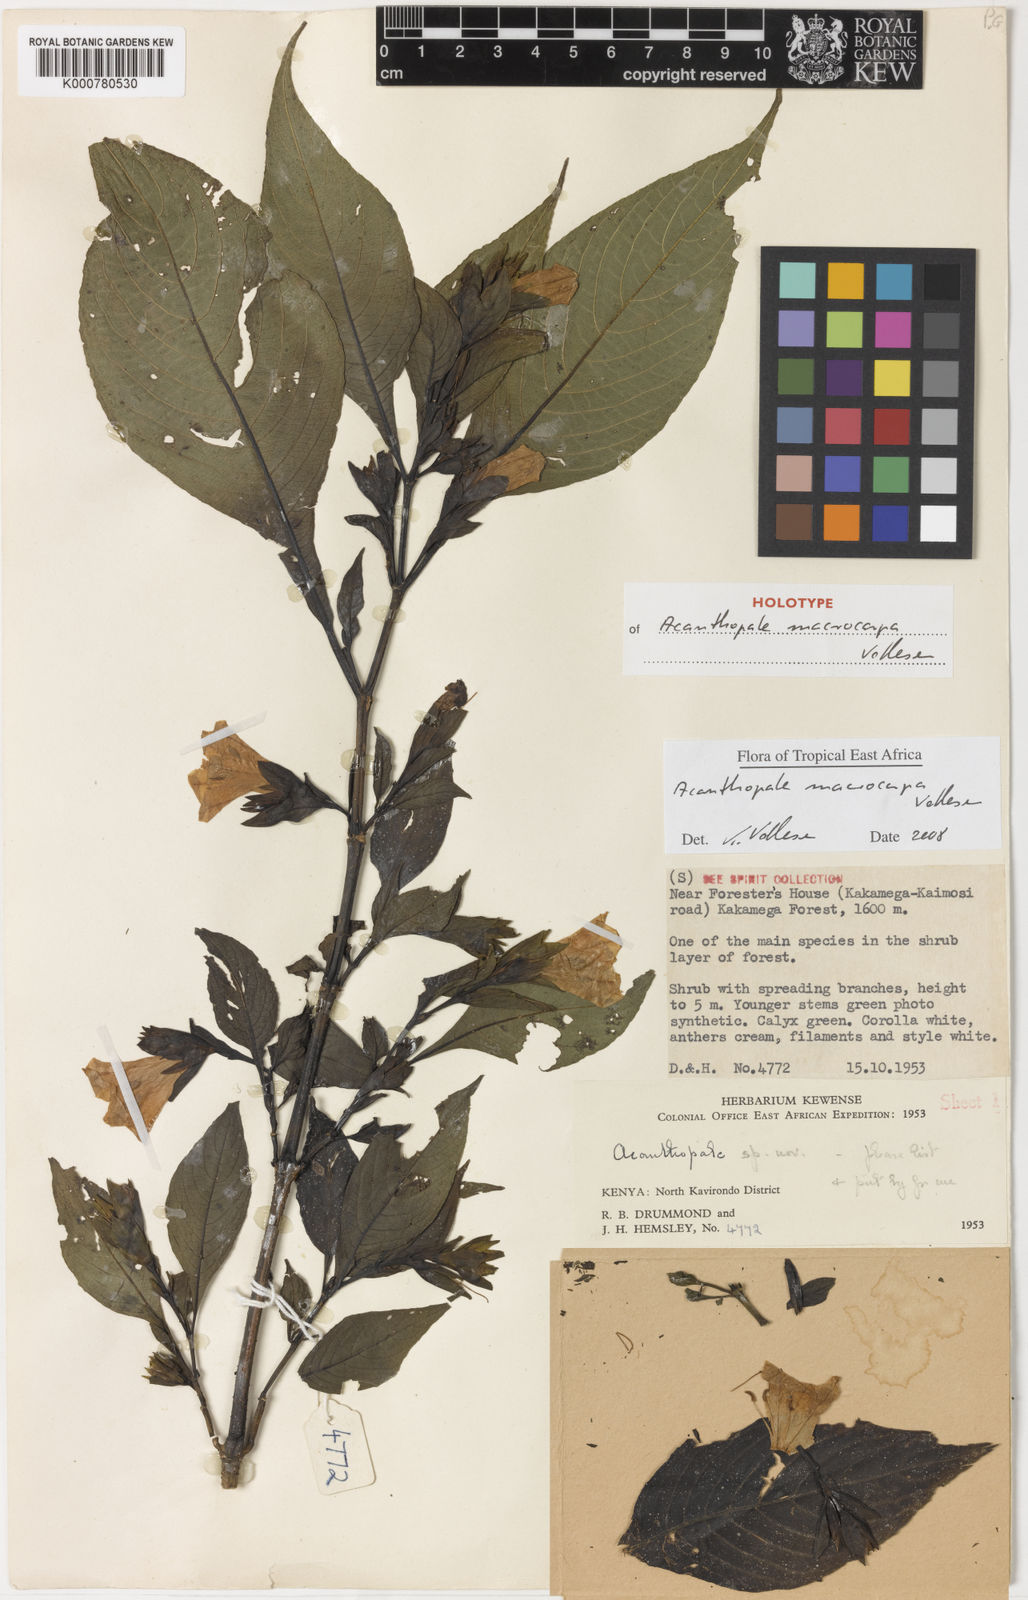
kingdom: Plantae
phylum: Tracheophyta
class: Magnoliopsida
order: Lamiales
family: Acanthaceae
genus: Acanthopale
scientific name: Acanthopale macrocarpa
